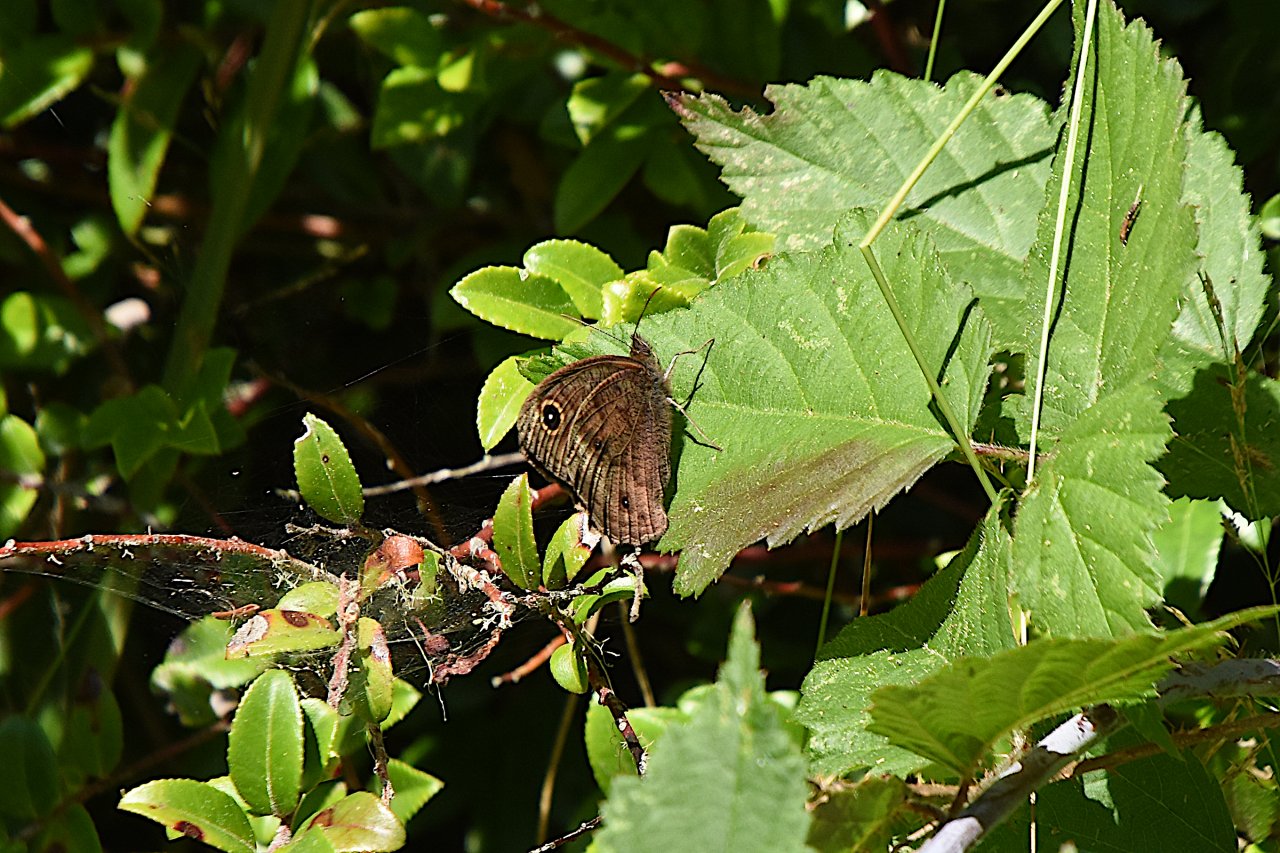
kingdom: Animalia
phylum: Arthropoda
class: Insecta
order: Lepidoptera
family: Nymphalidae
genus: Cercyonis
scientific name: Cercyonis pegala
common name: Common Wood-Nymph
